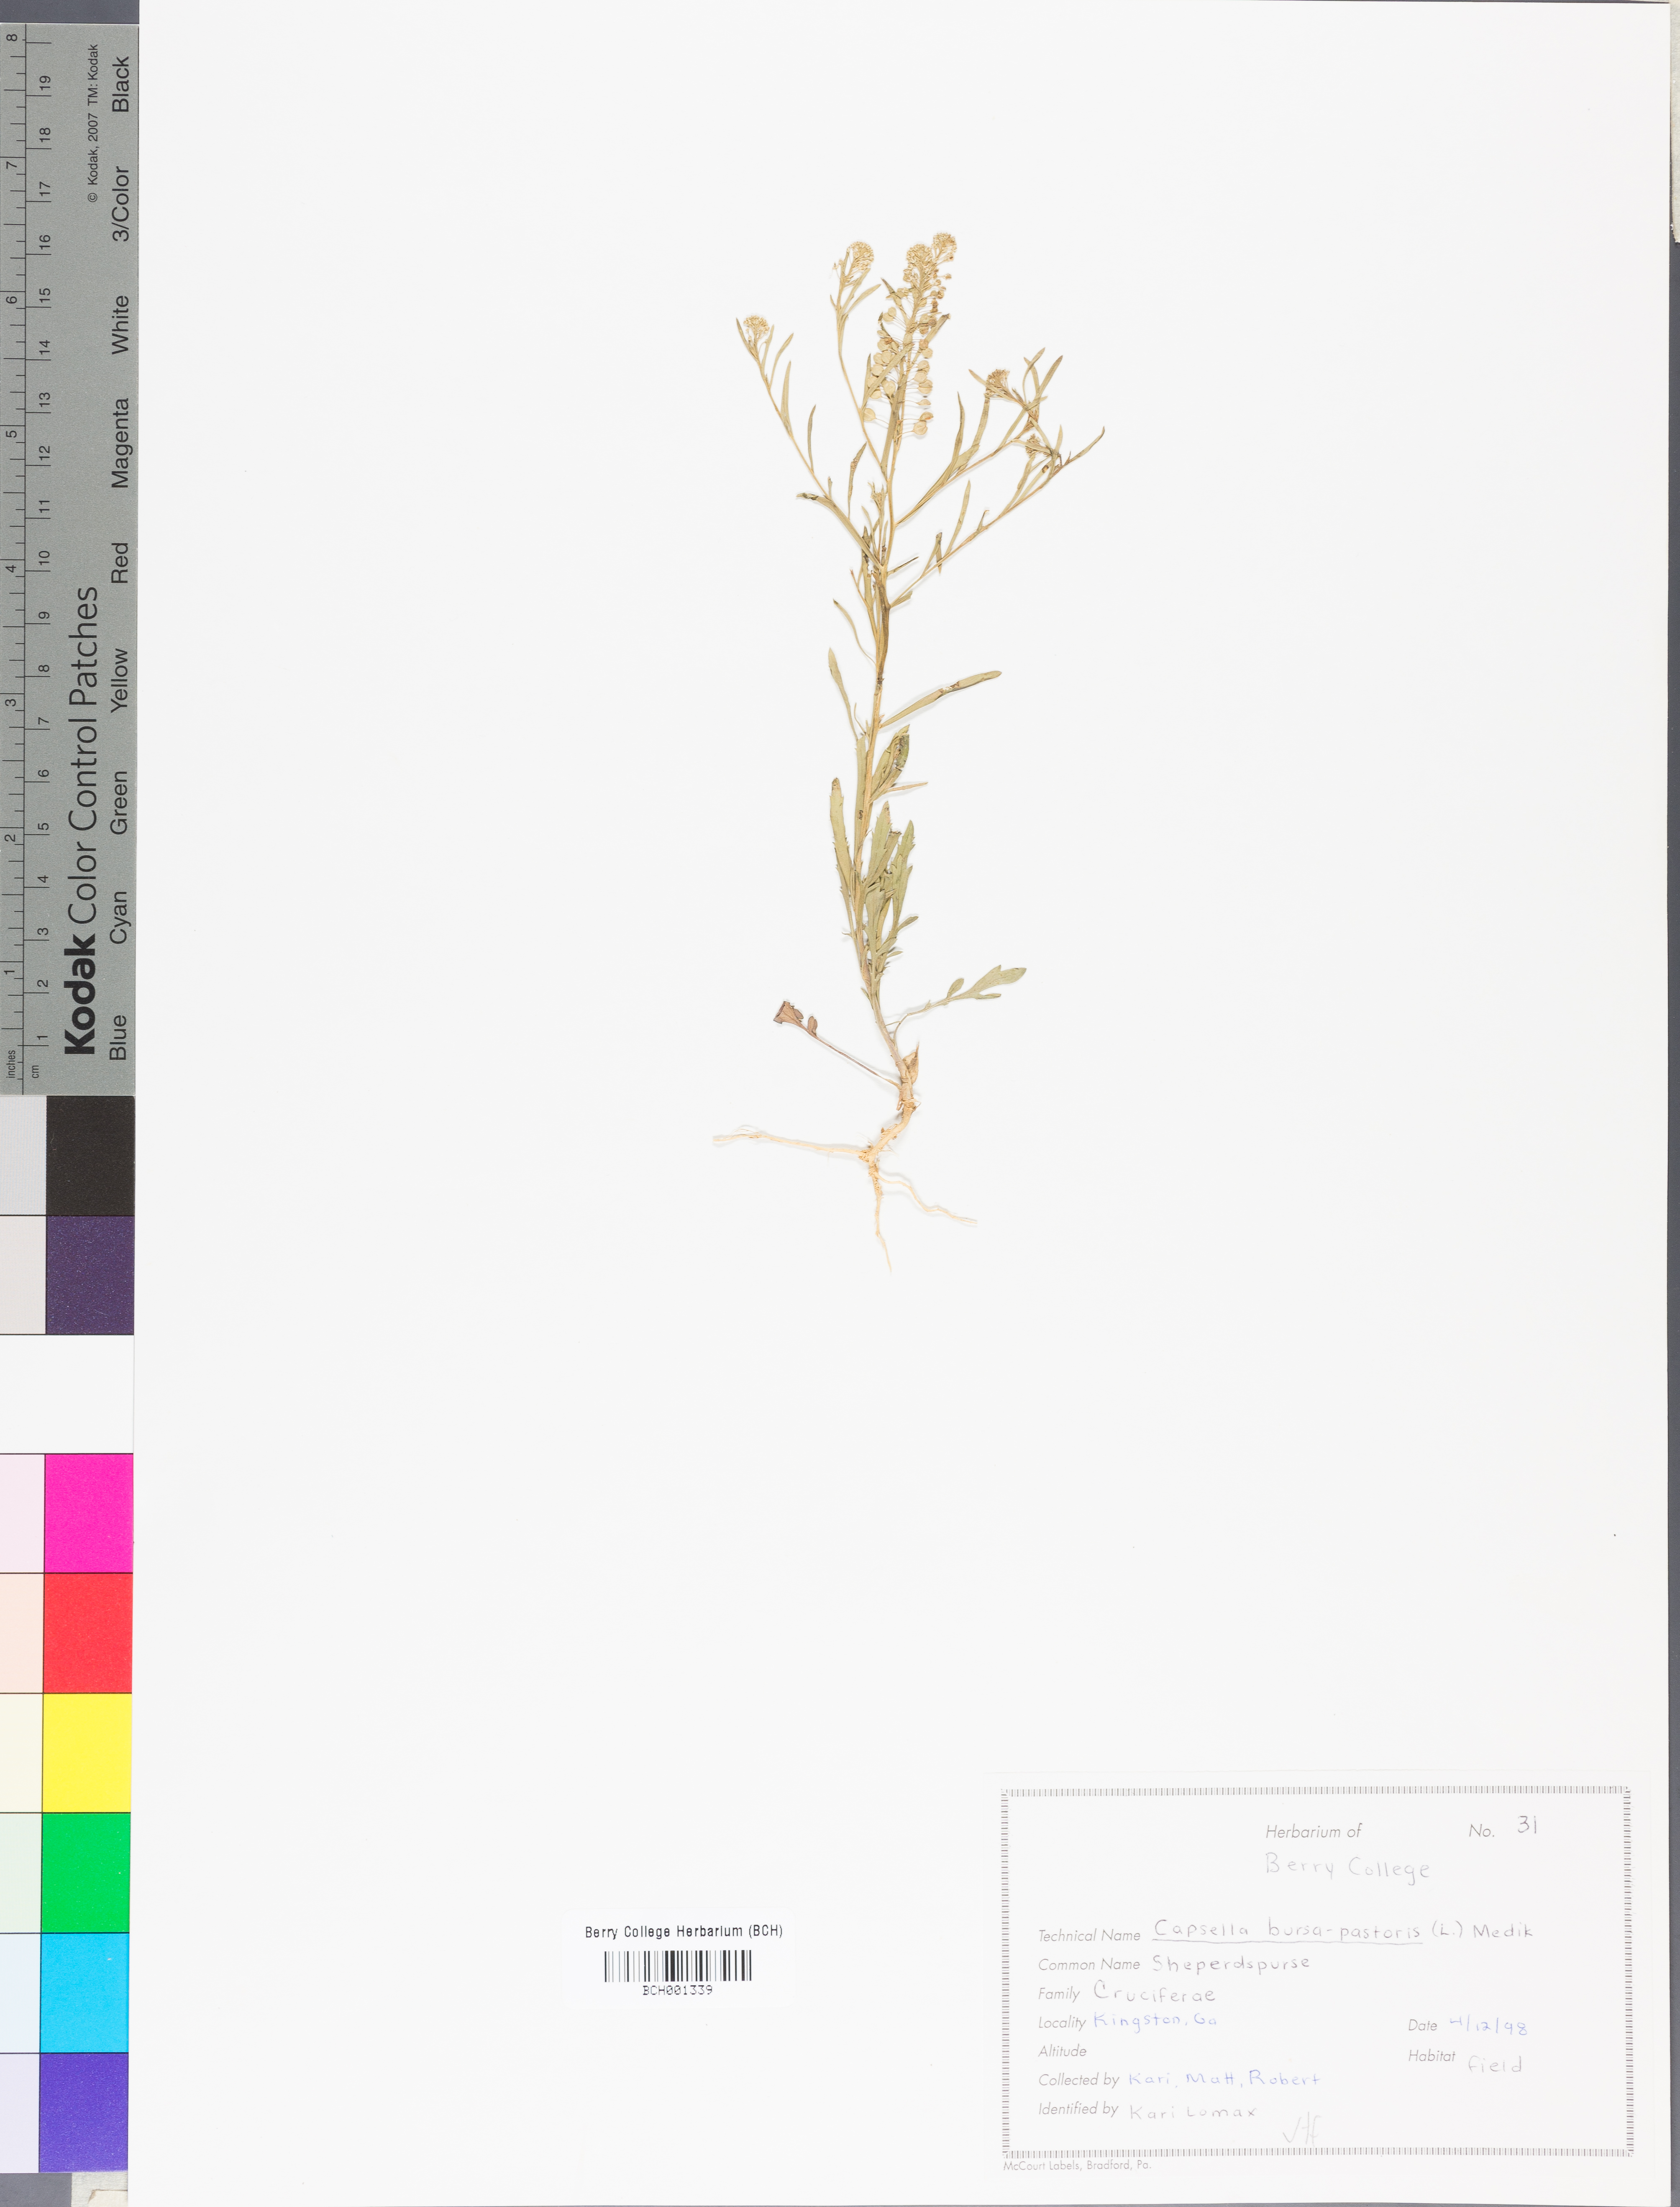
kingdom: Plantae
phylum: Tracheophyta
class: Magnoliopsida
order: Brassicales
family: Brassicaceae
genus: Capsella
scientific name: Capsella bursa-pastoris
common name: Shepherd's purse
